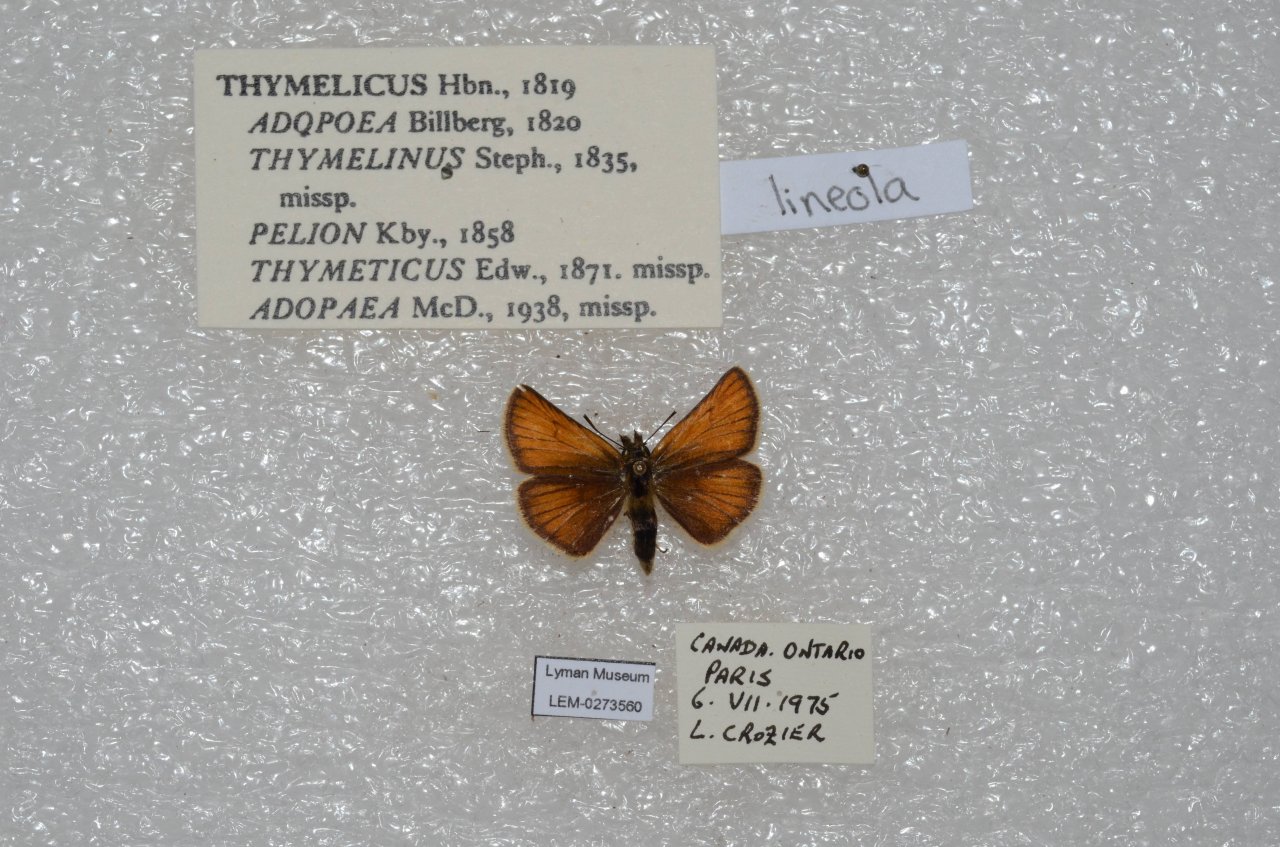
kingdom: Animalia
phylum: Arthropoda
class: Insecta
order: Lepidoptera
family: Hesperiidae
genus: Thymelicus
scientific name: Thymelicus lineola
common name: European Skipper
